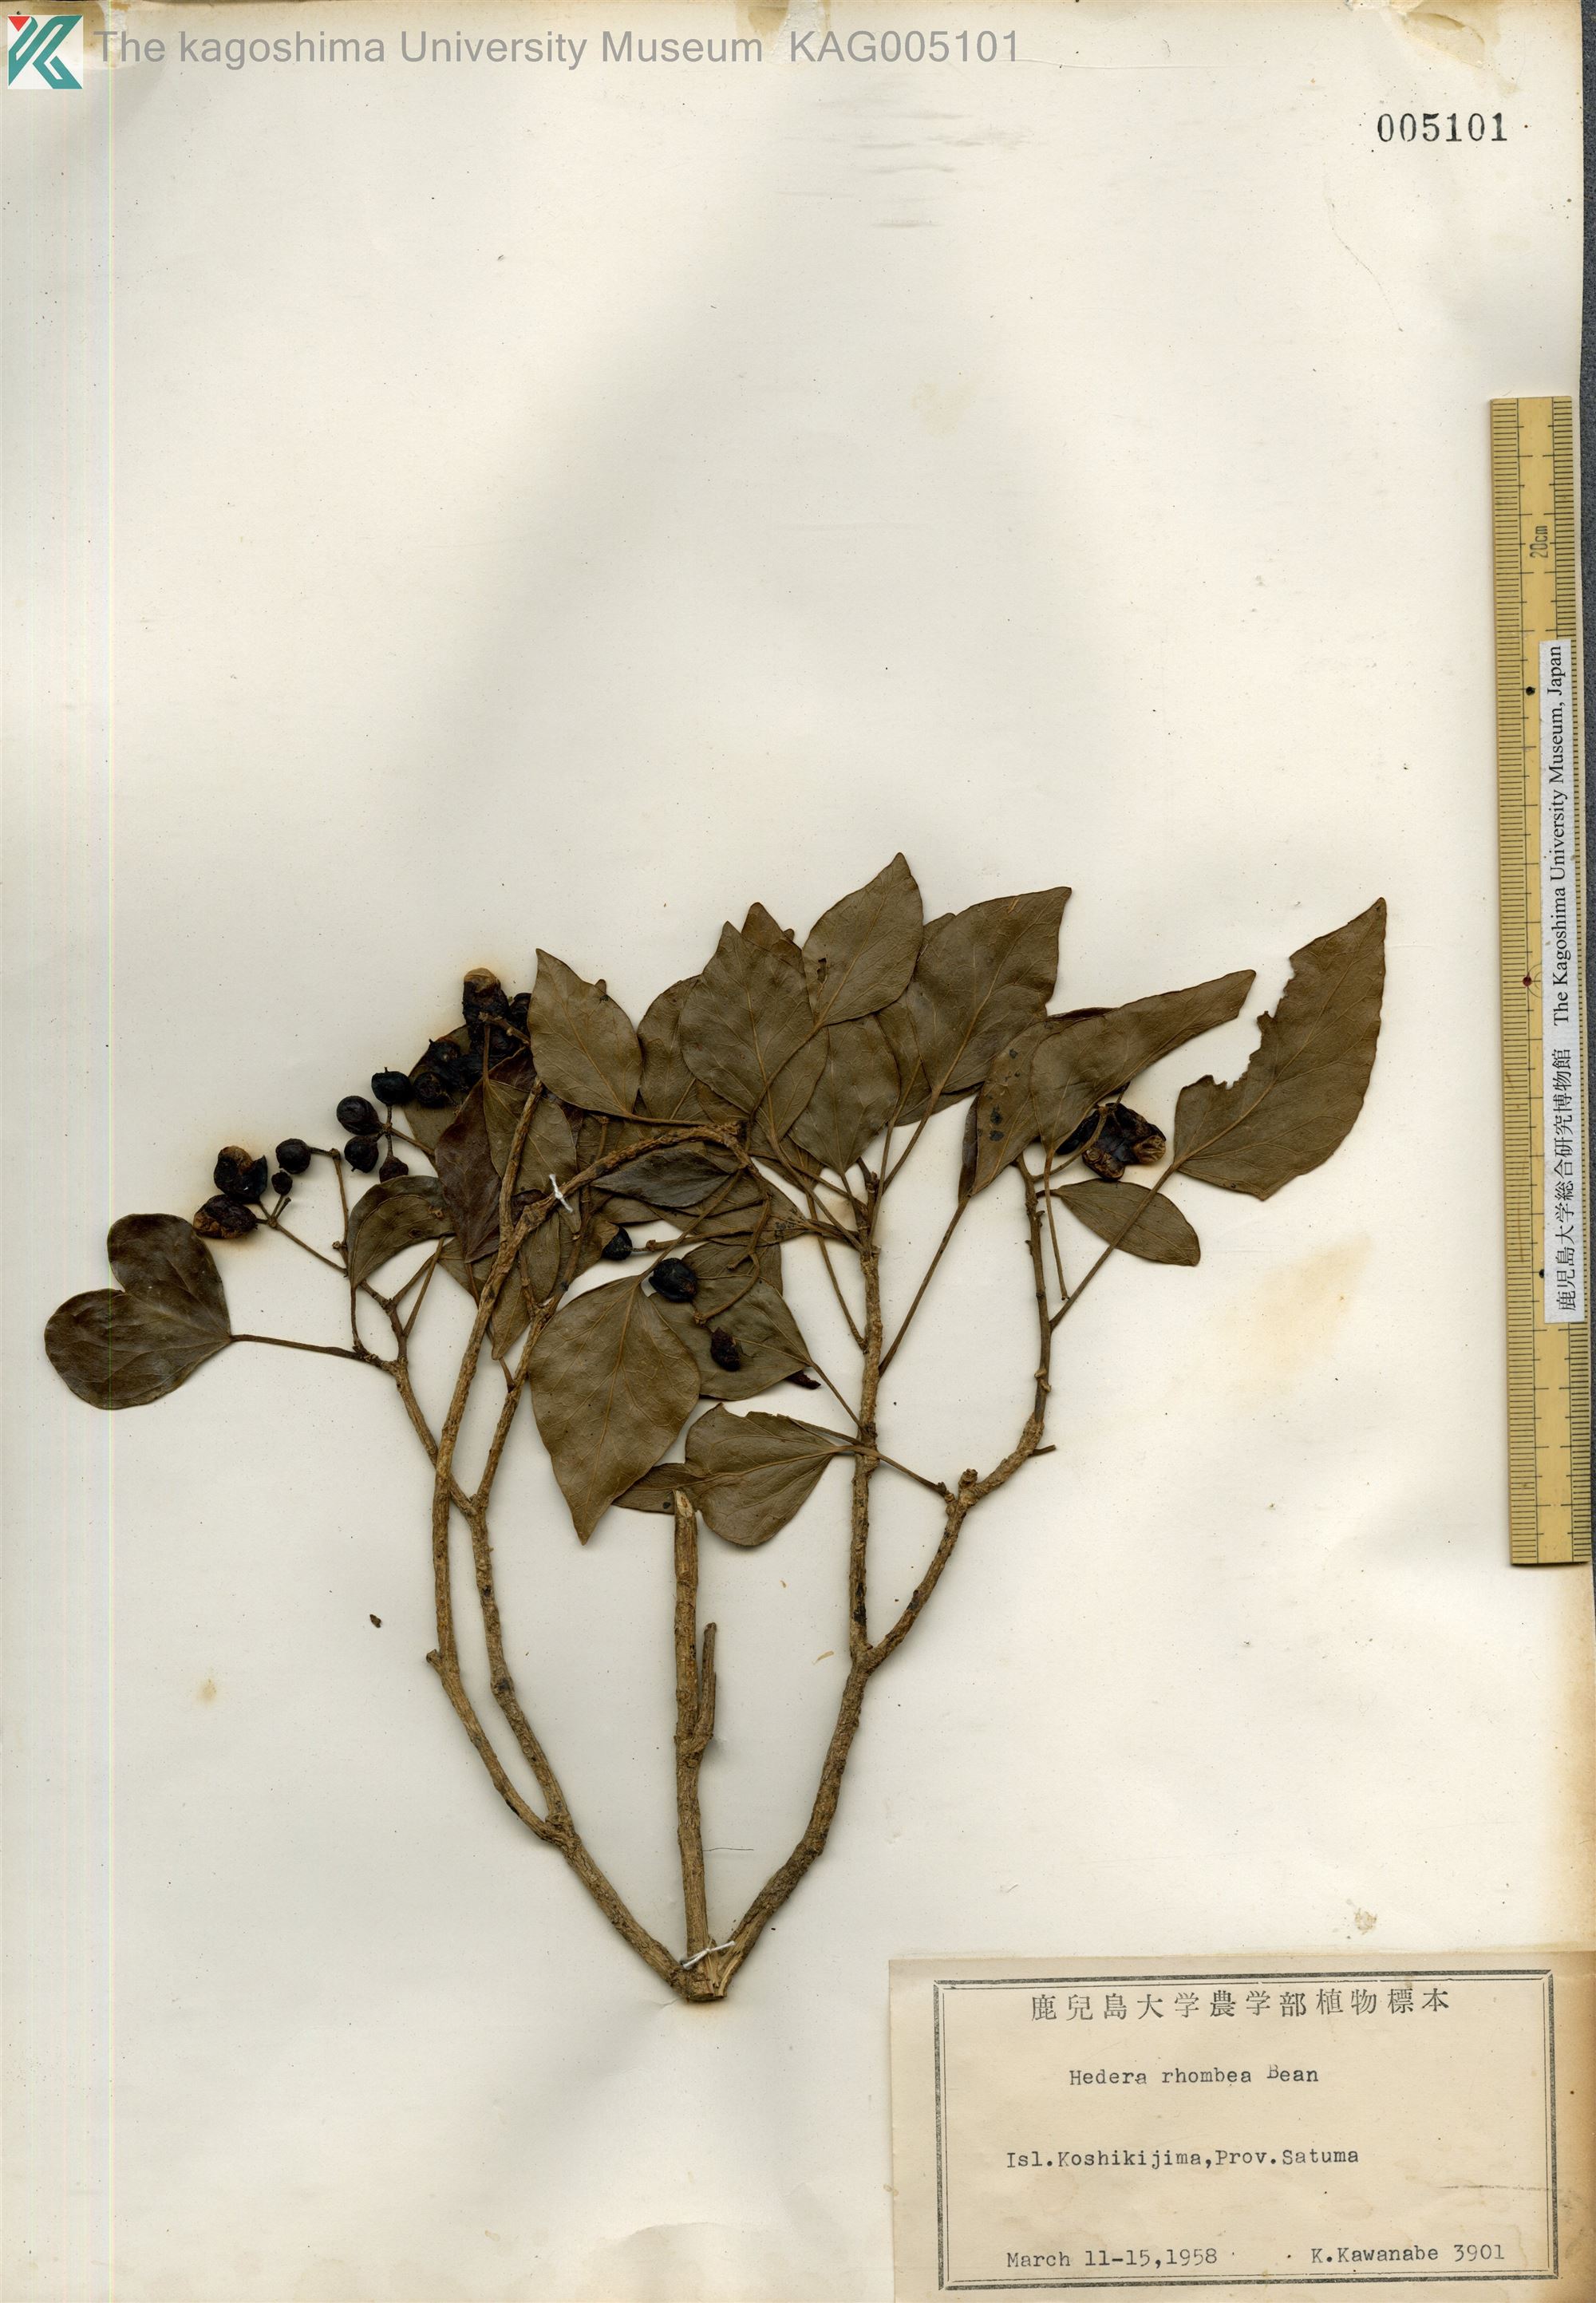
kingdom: Plantae
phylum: Tracheophyta
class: Magnoliopsida
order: Apiales
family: Araliaceae
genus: Hedera
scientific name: Hedera rhombea
